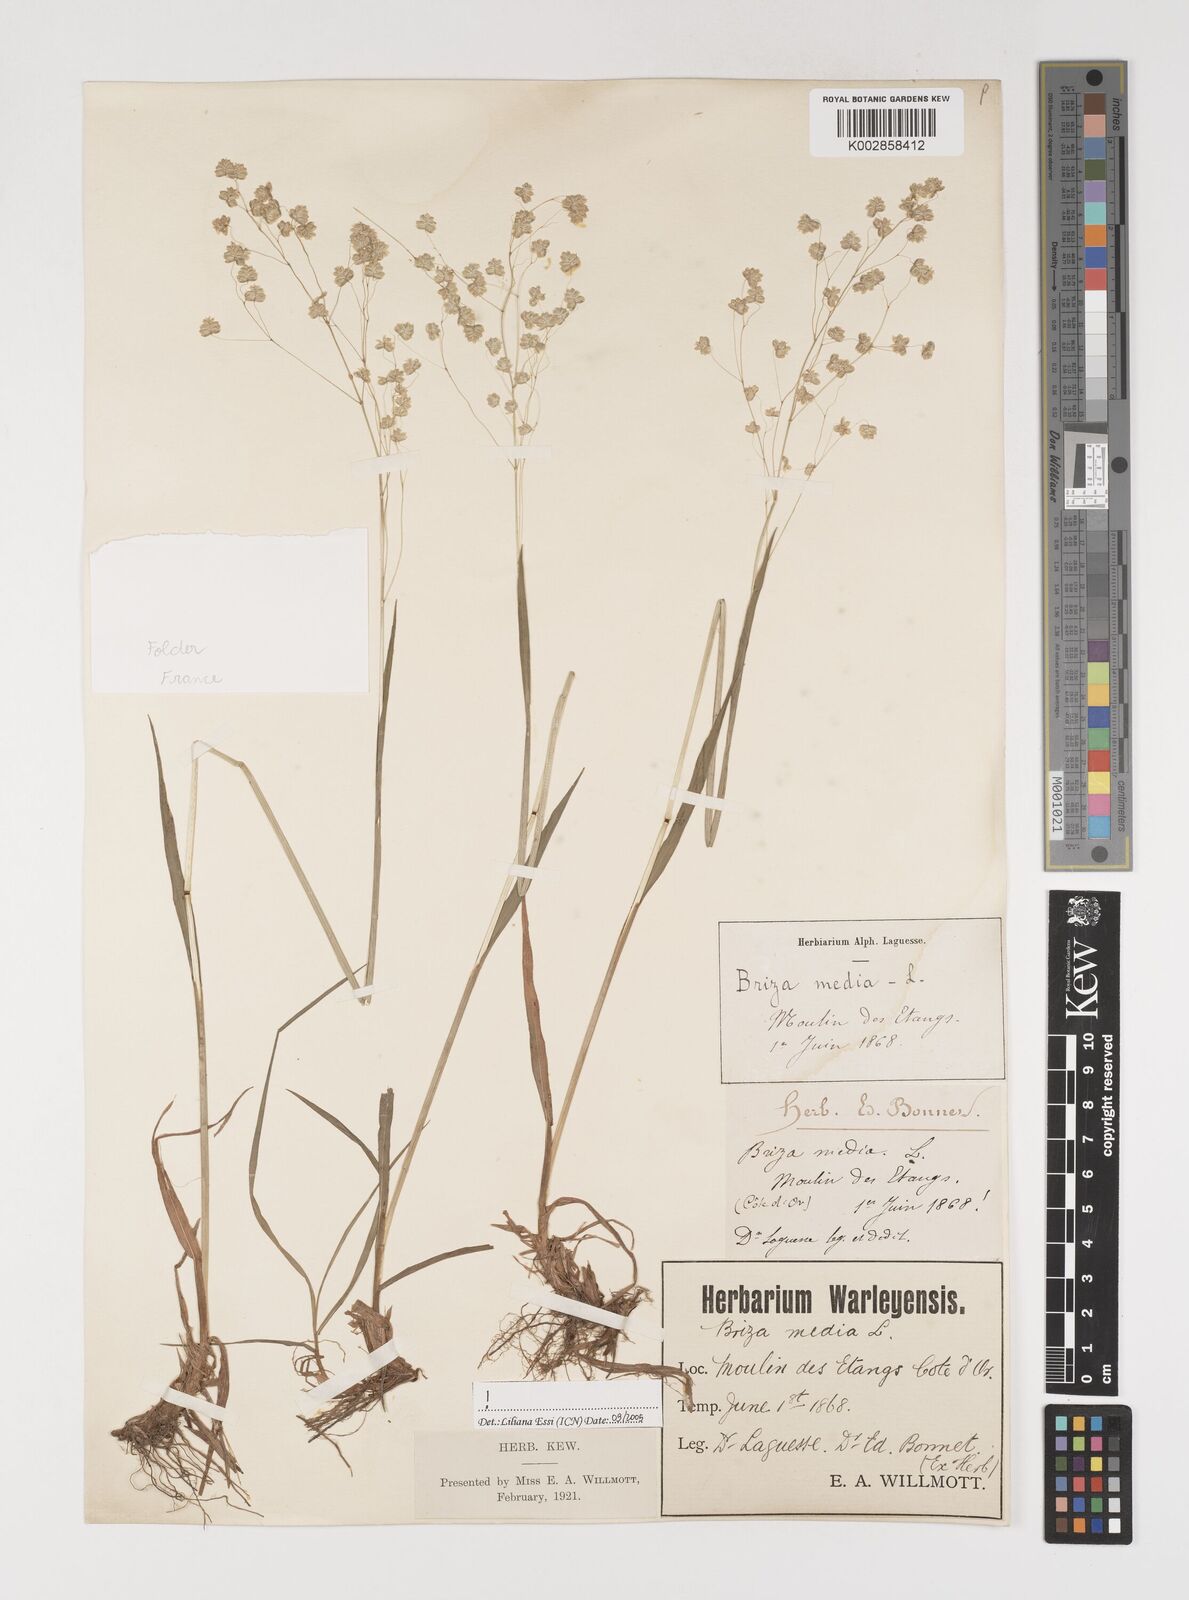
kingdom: Plantae
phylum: Tracheophyta
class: Liliopsida
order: Poales
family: Poaceae
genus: Briza
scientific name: Briza media
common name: Quaking grass
